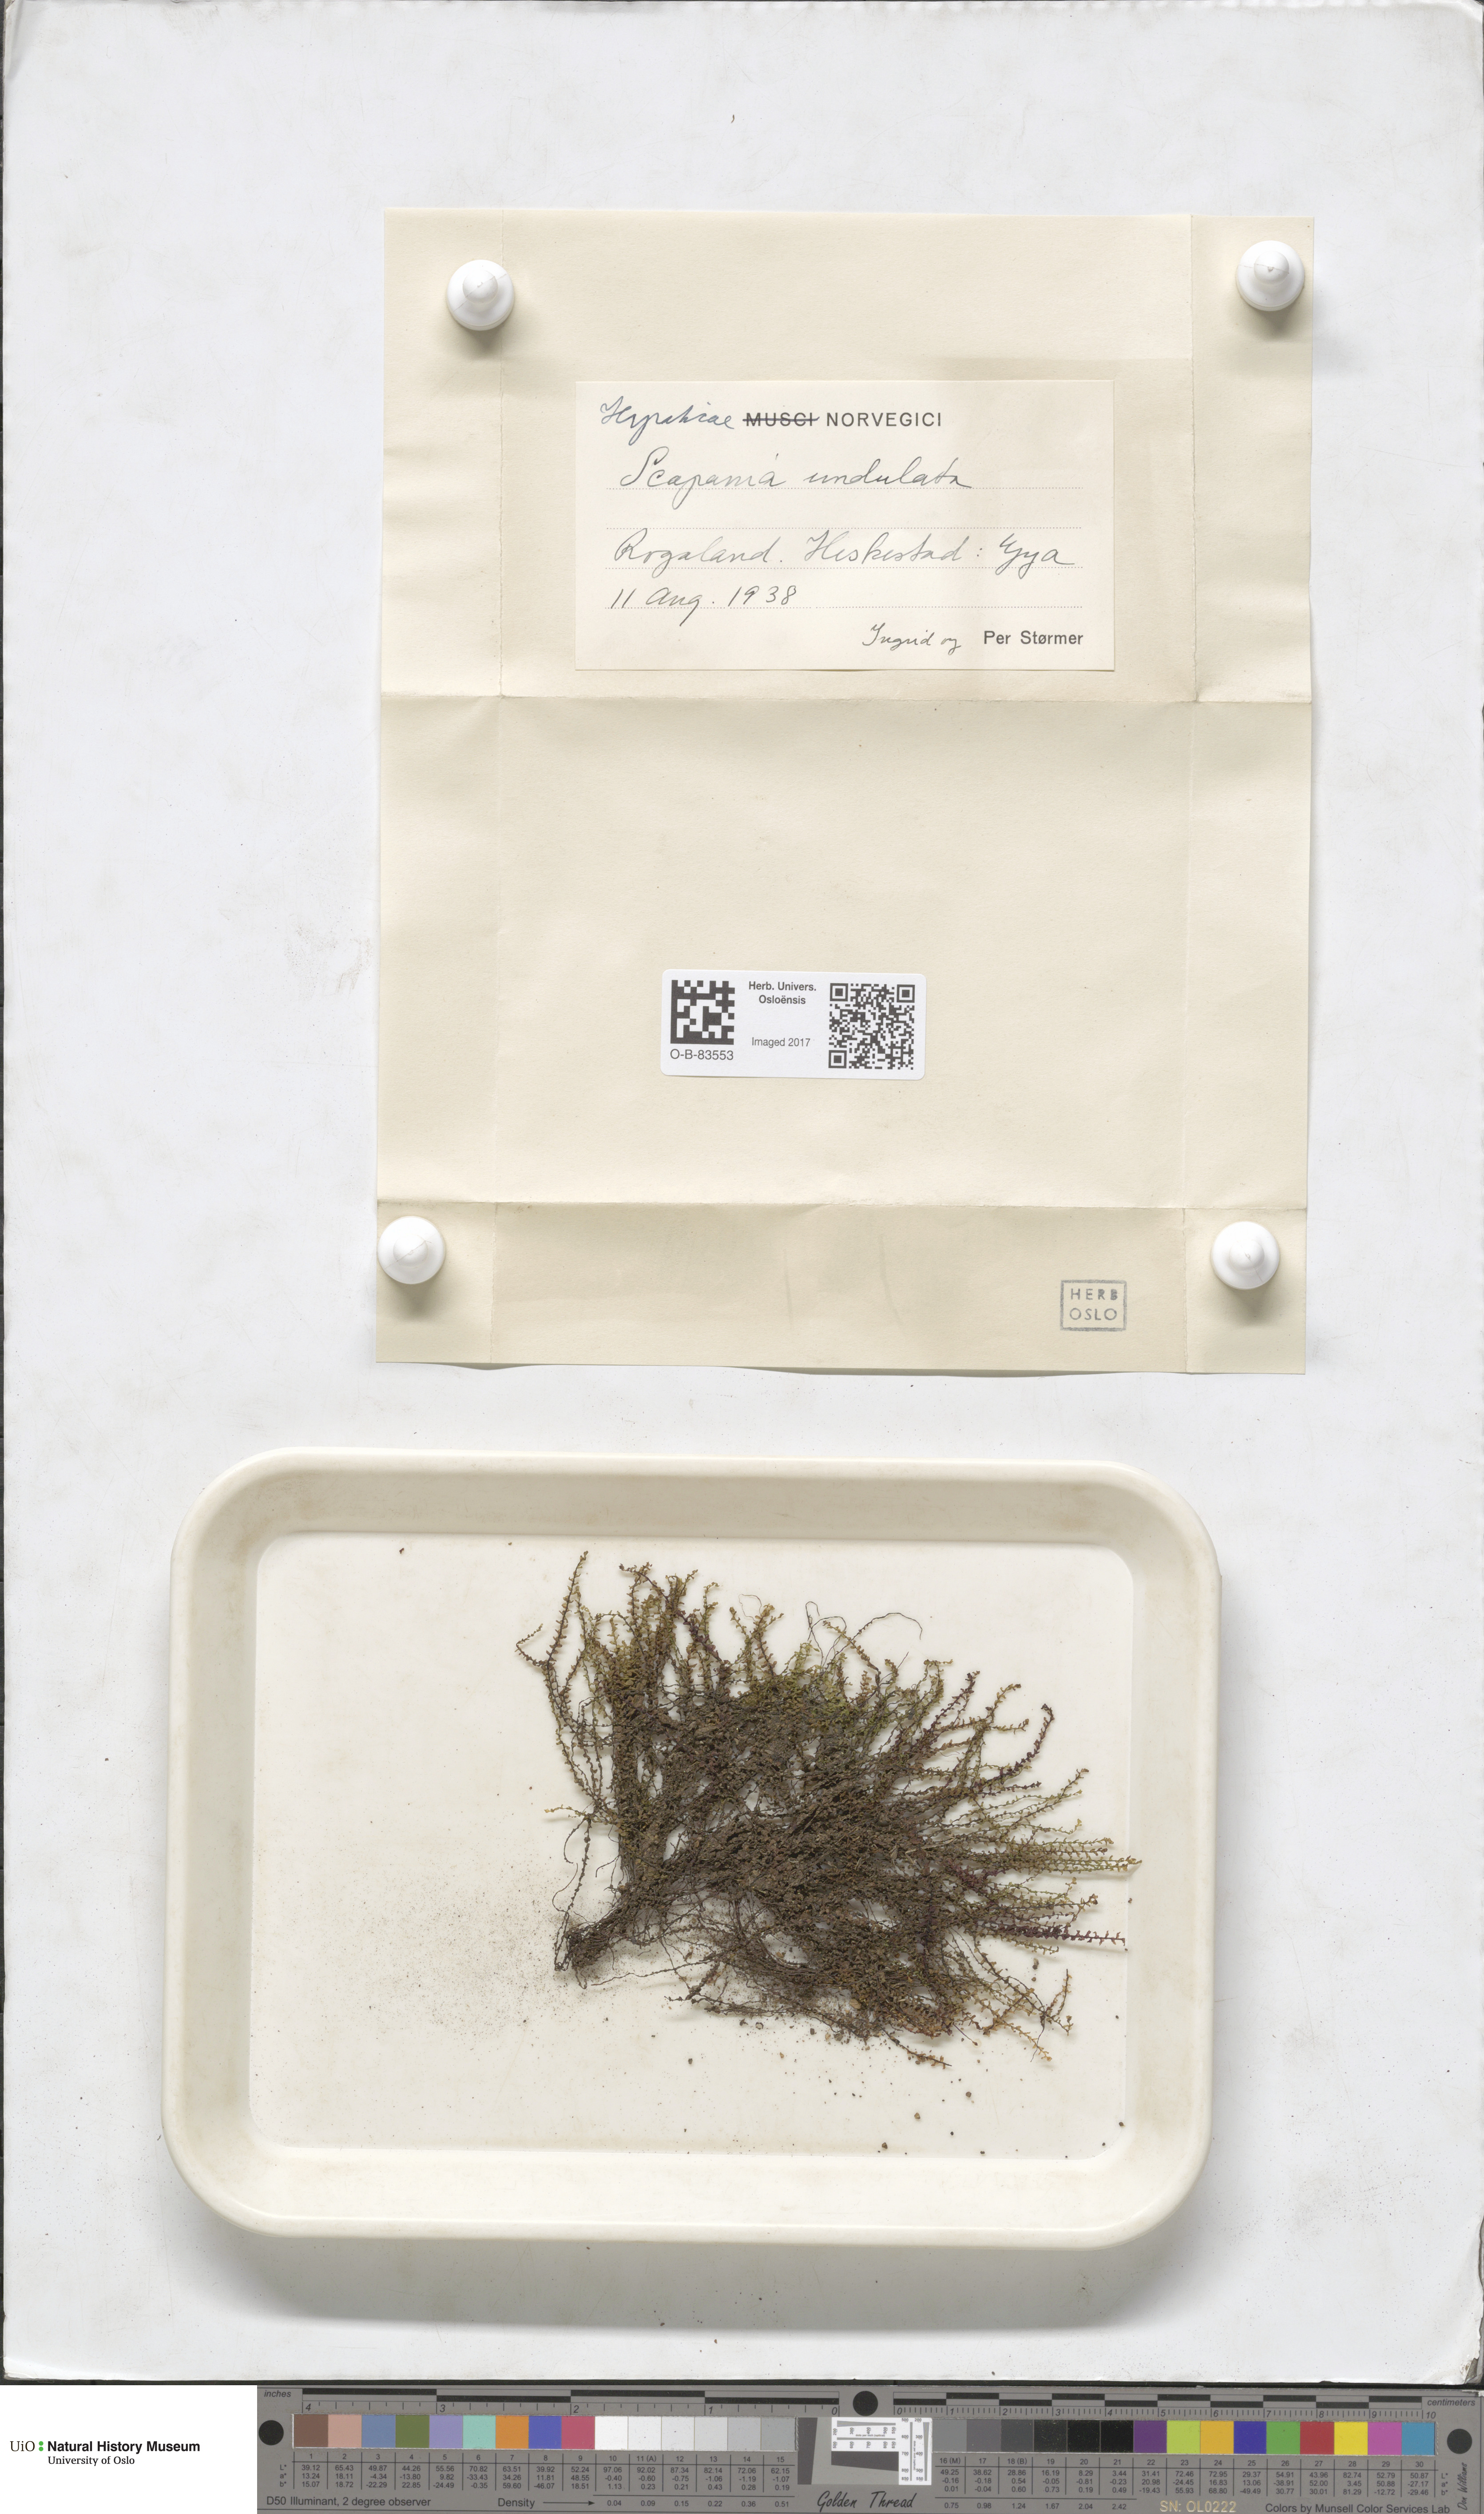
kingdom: Plantae
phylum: Marchantiophyta
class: Jungermanniopsida
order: Jungermanniales
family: Scapaniaceae
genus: Scapania
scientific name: Scapania undulata
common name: Water earwort
